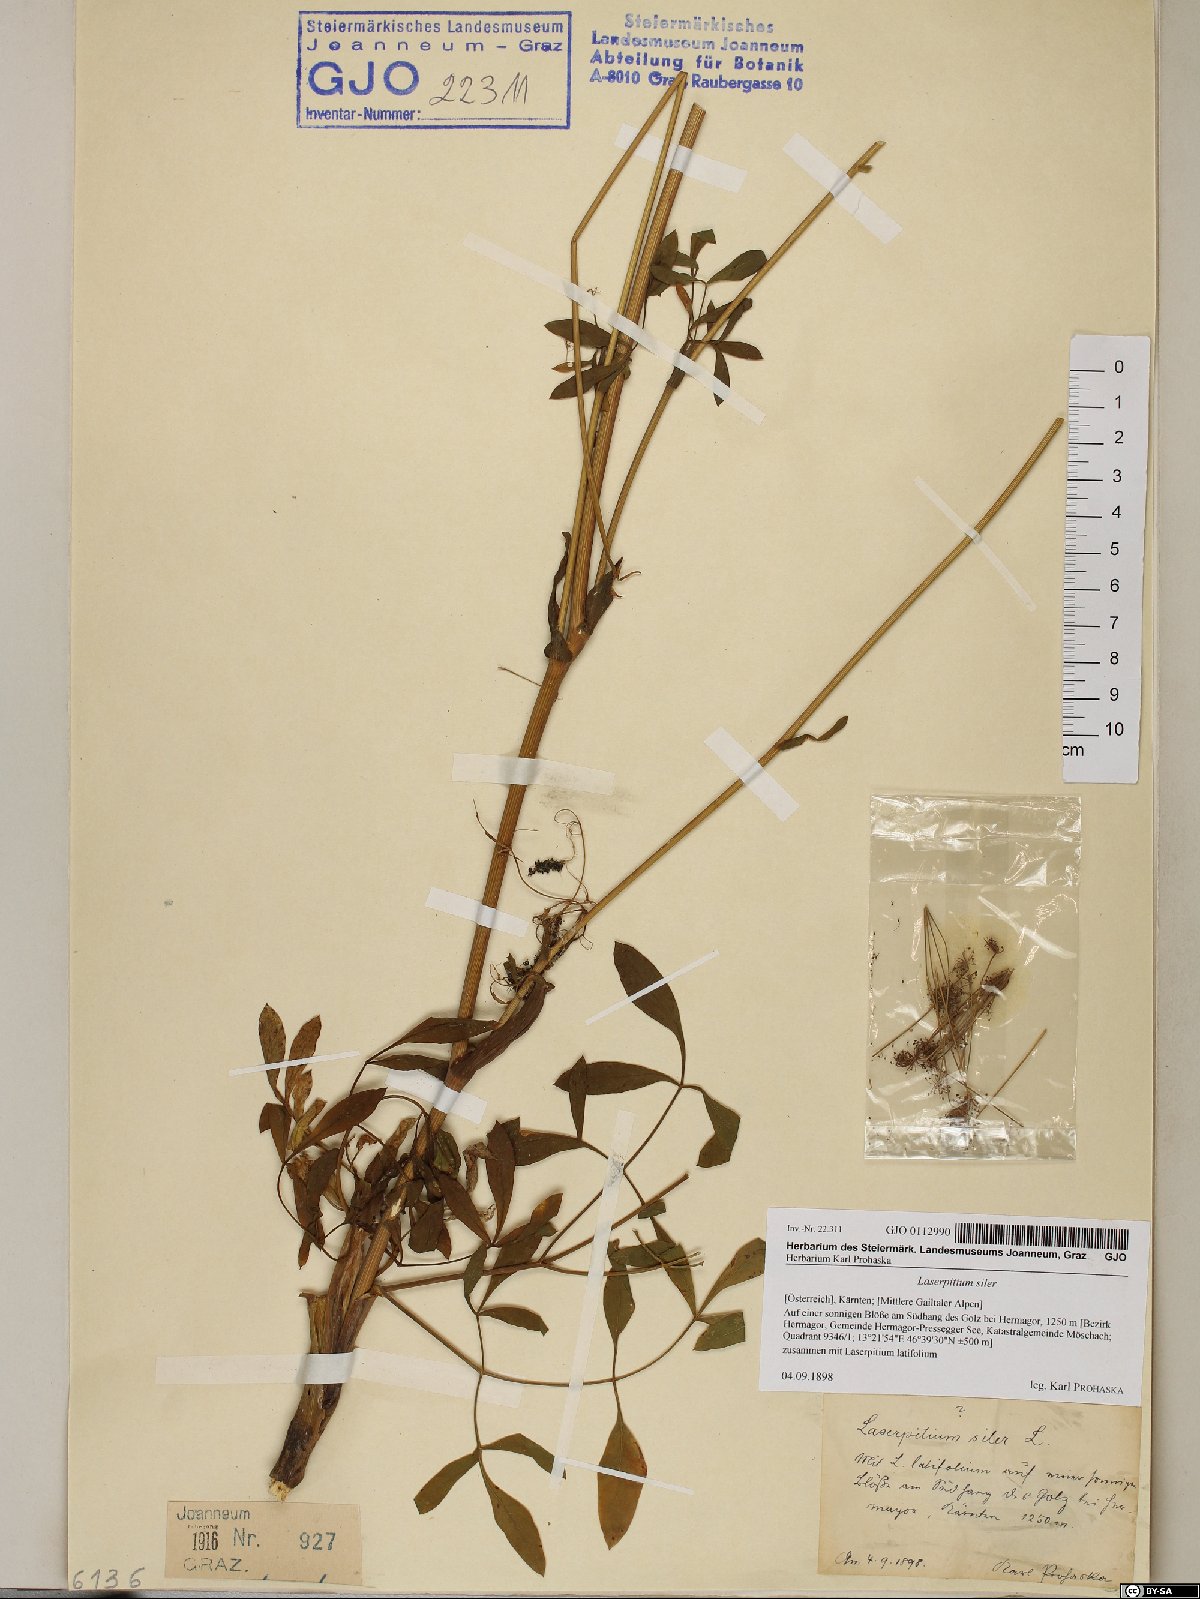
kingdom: Plantae
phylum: Tracheophyta
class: Magnoliopsida
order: Apiales
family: Apiaceae
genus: Siler
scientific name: Siler montanum
